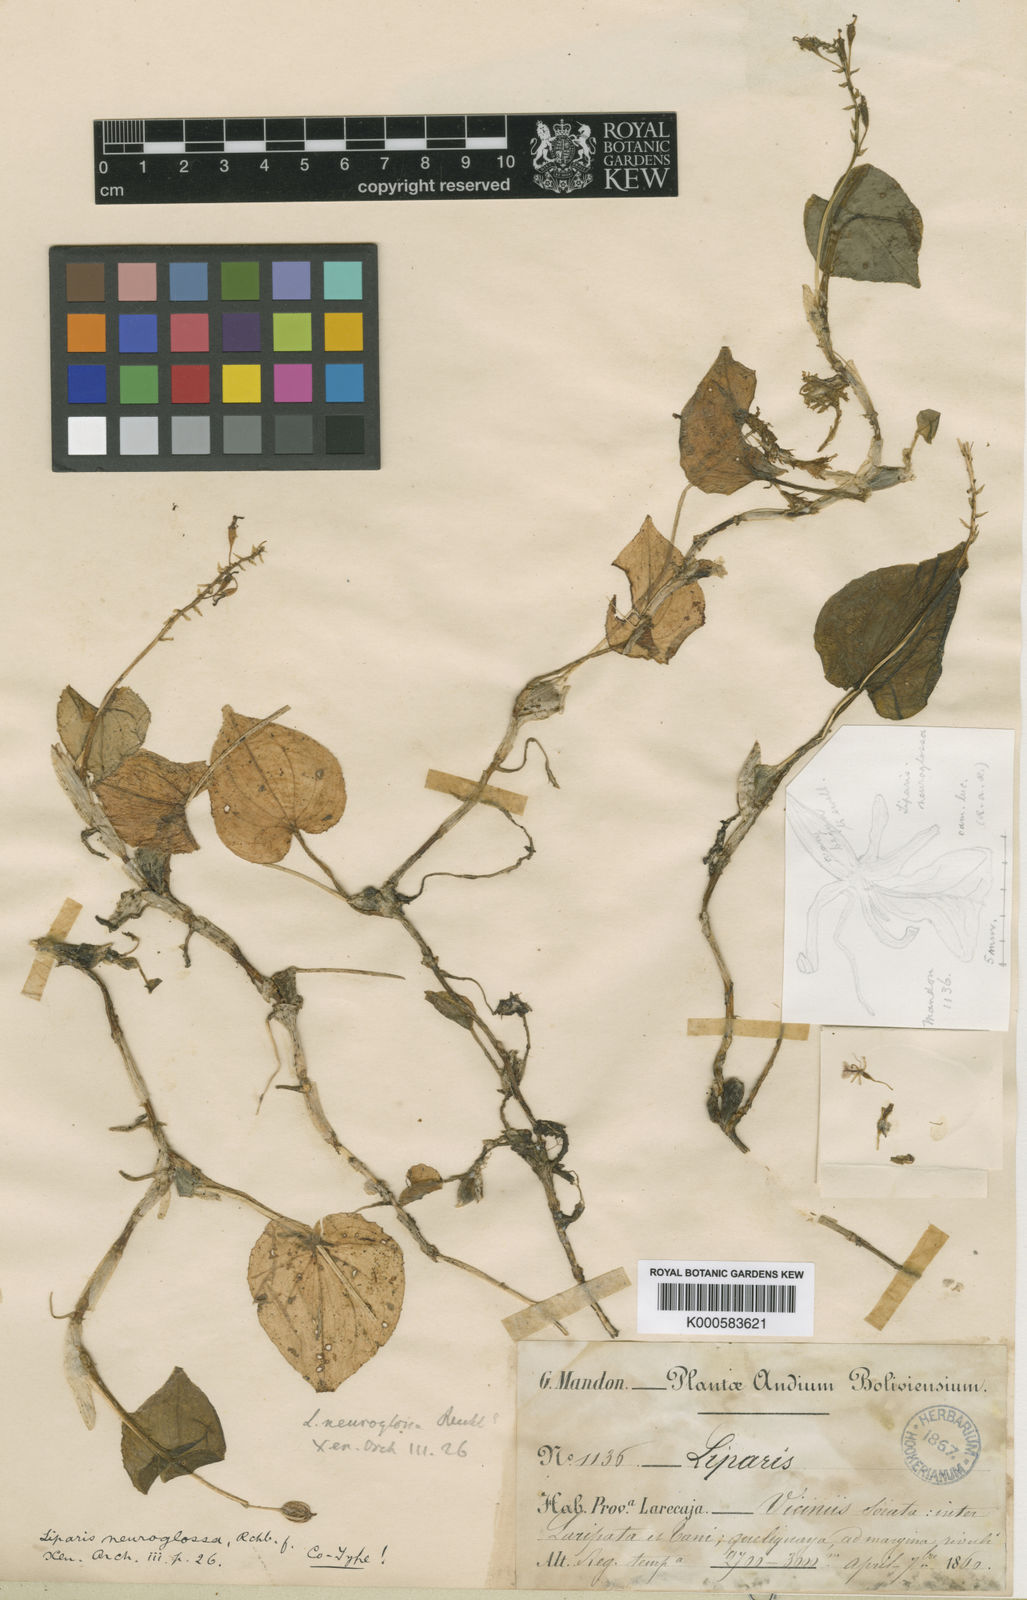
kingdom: Plantae
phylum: Tracheophyta
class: Liliopsida
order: Asparagales
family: Orchidaceae
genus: Liparis
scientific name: Liparis neuroglossa
